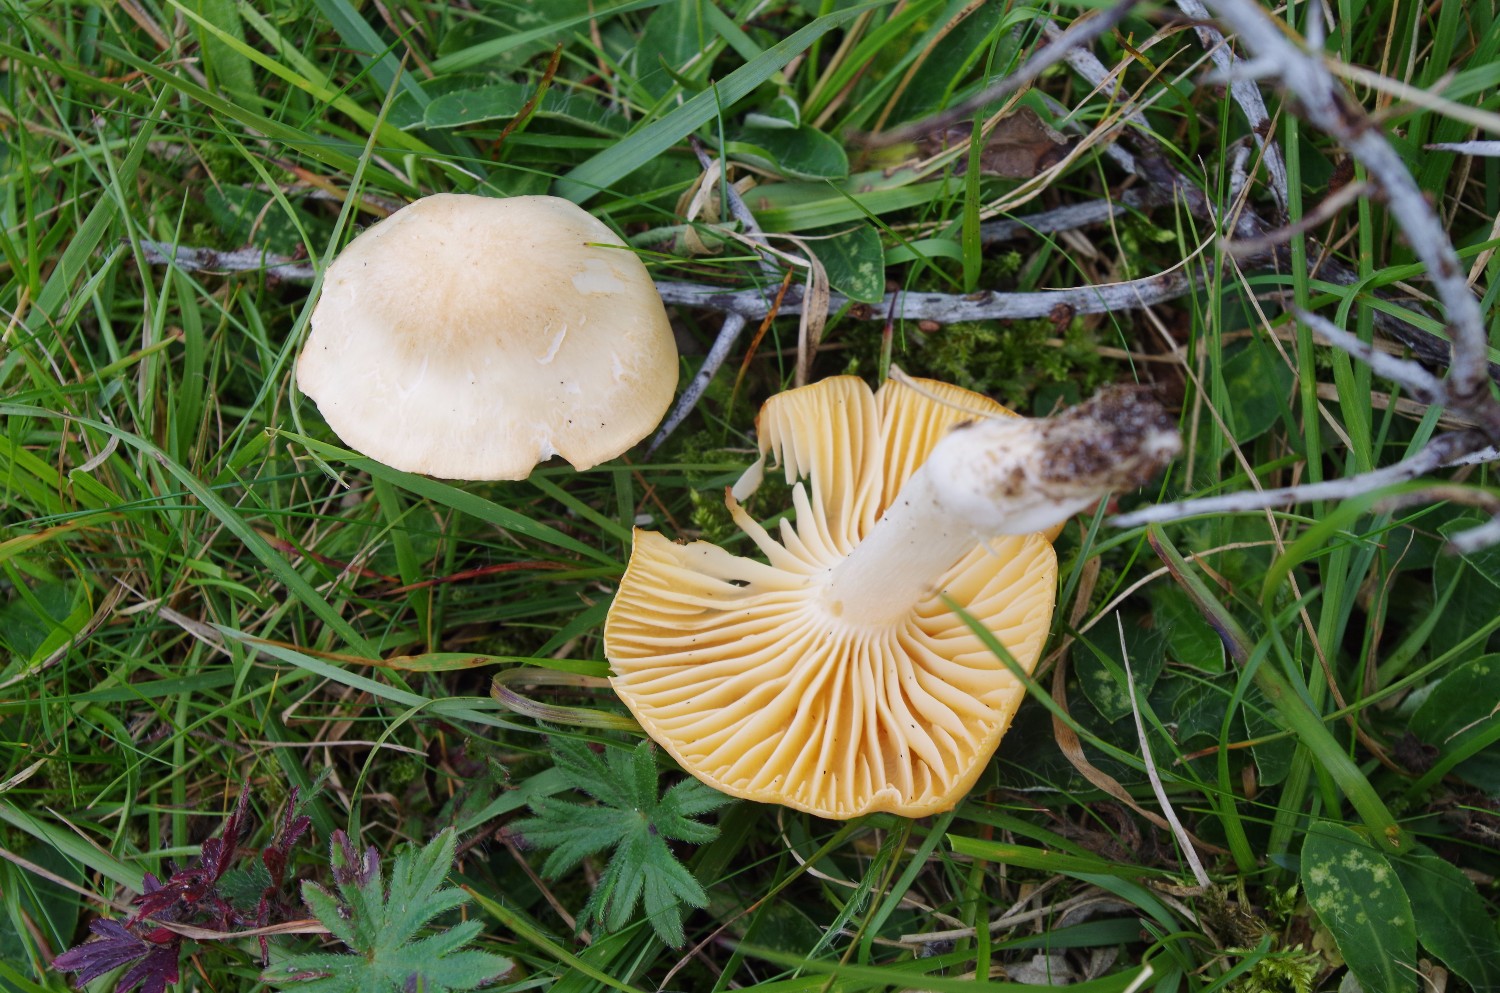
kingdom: Fungi
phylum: Basidiomycota
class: Agaricomycetes
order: Agaricales
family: Hygrophoraceae
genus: Cuphophyllus
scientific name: Cuphophyllus pratensis
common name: eng-vokshat
